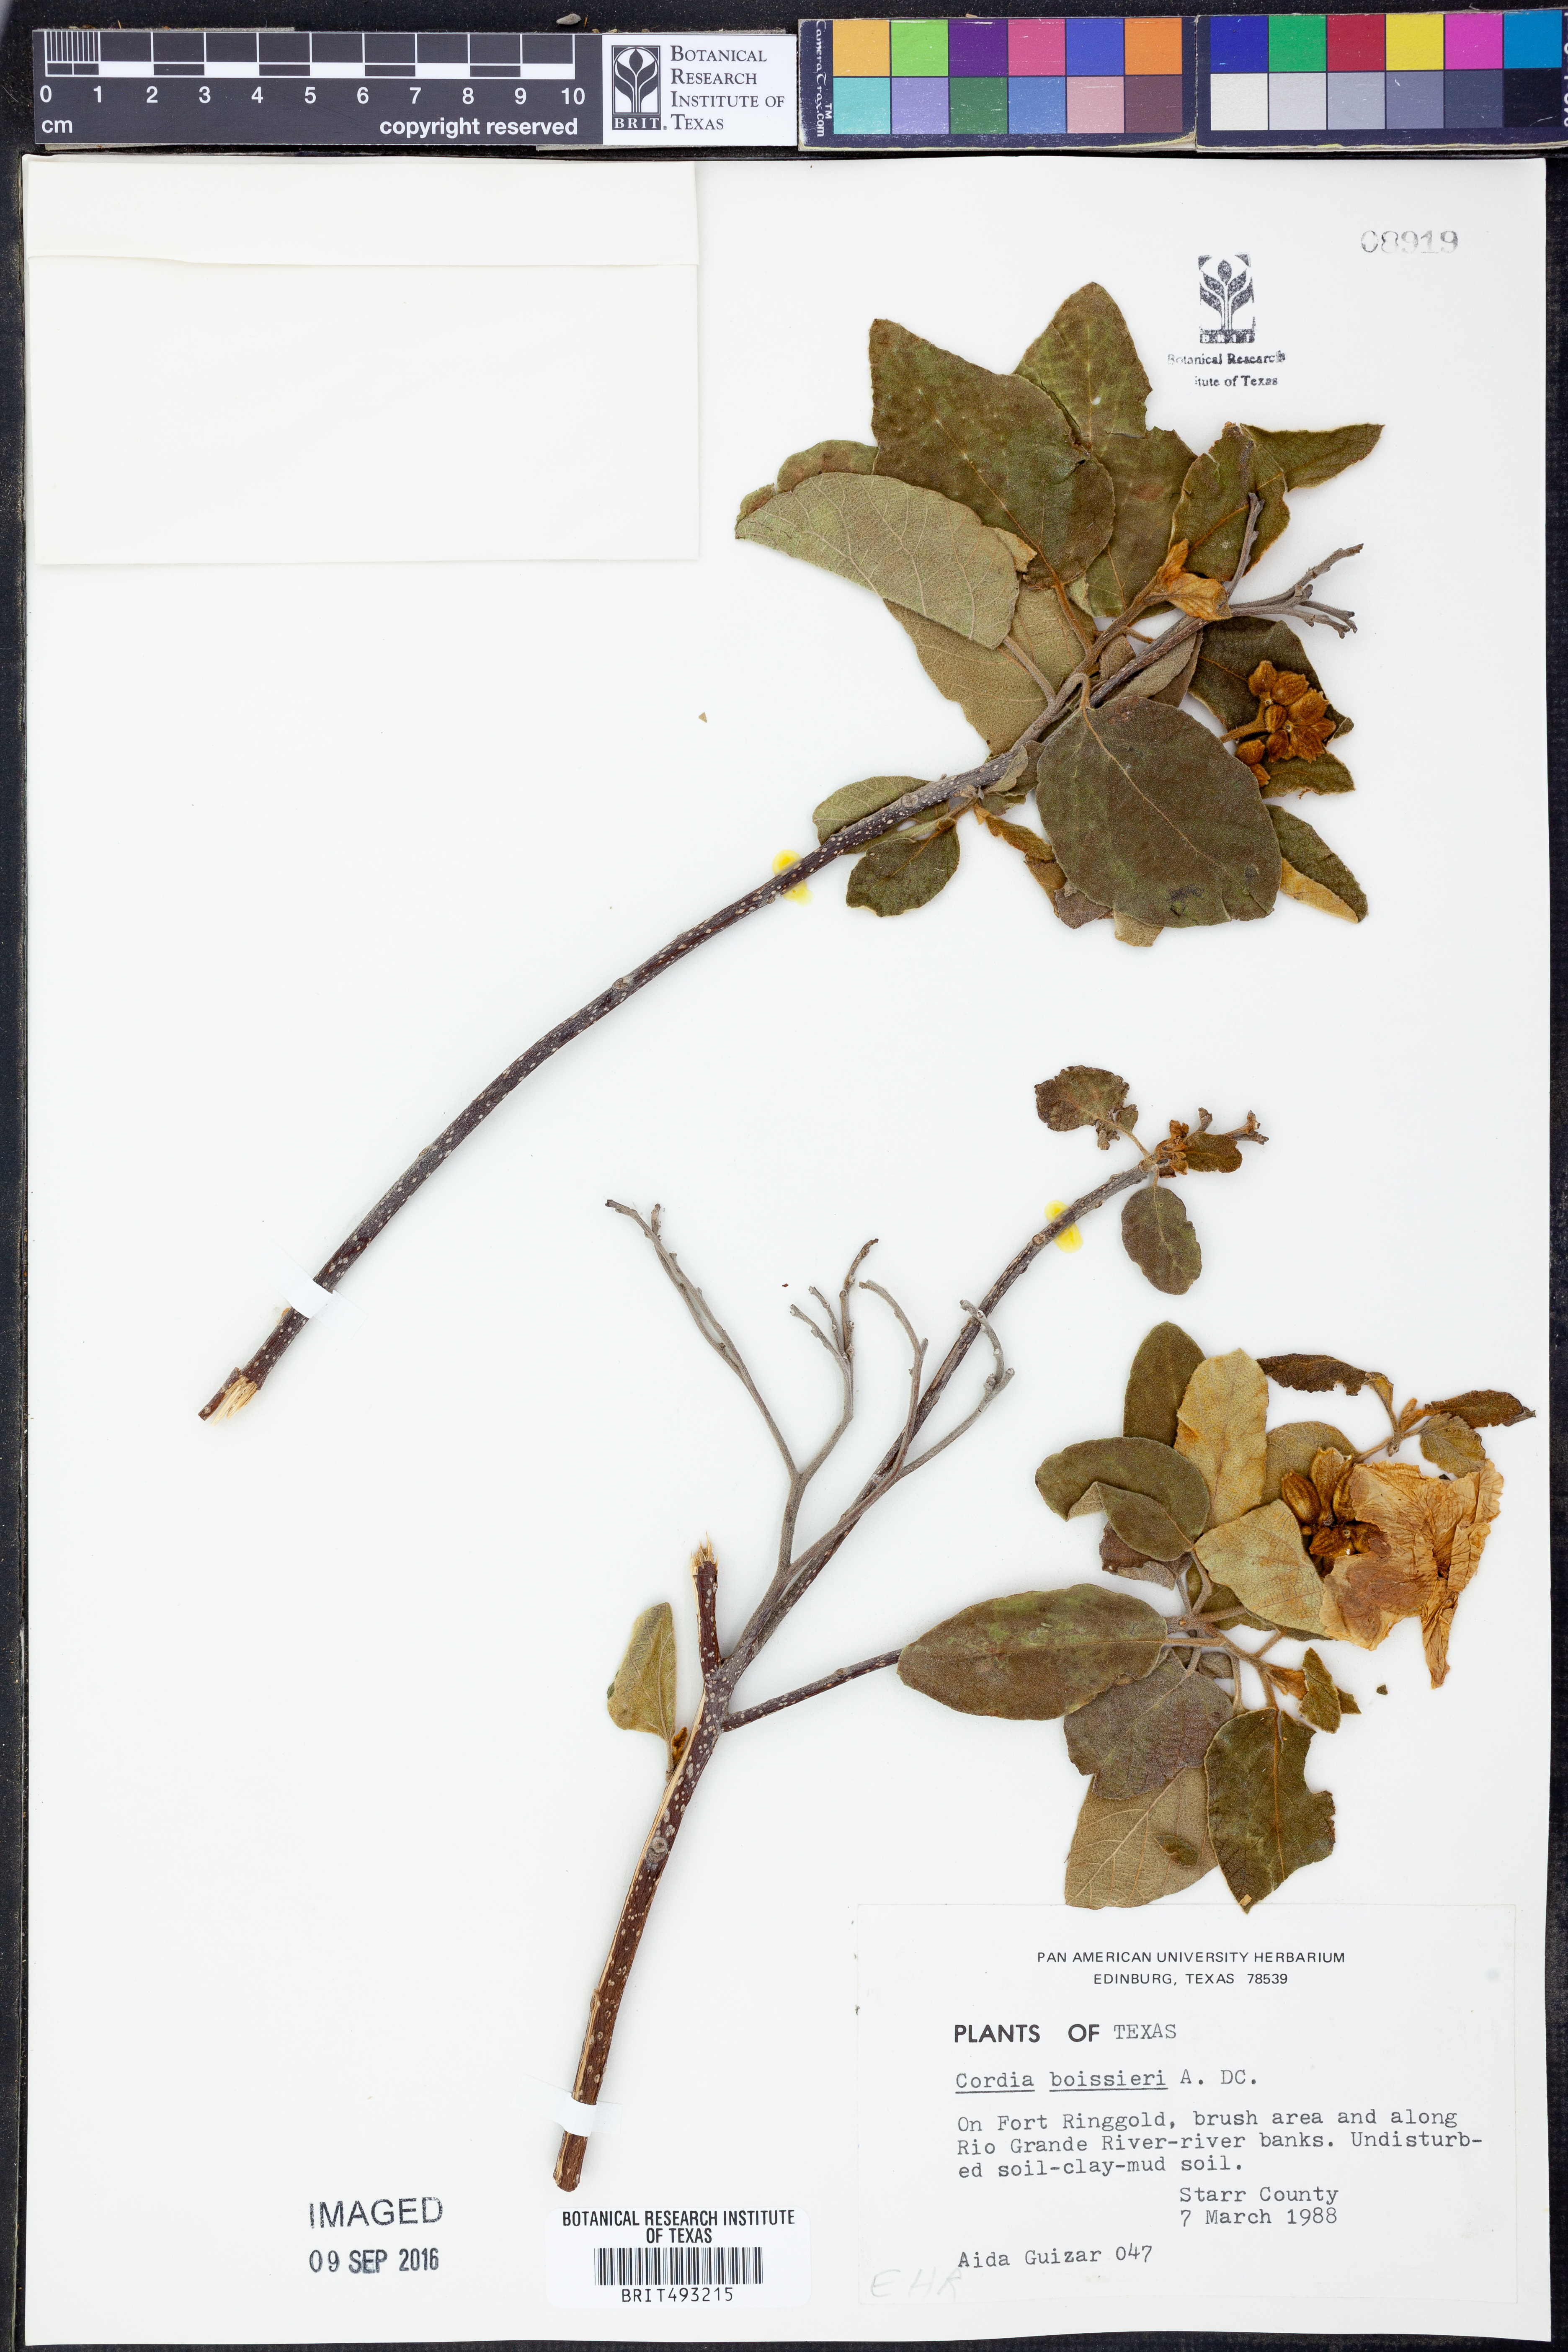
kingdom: Plantae
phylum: Tracheophyta
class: Magnoliopsida
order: Boraginales
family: Cordiaceae
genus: Cordia
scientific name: Cordia boissieri
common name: Mexican-olive
